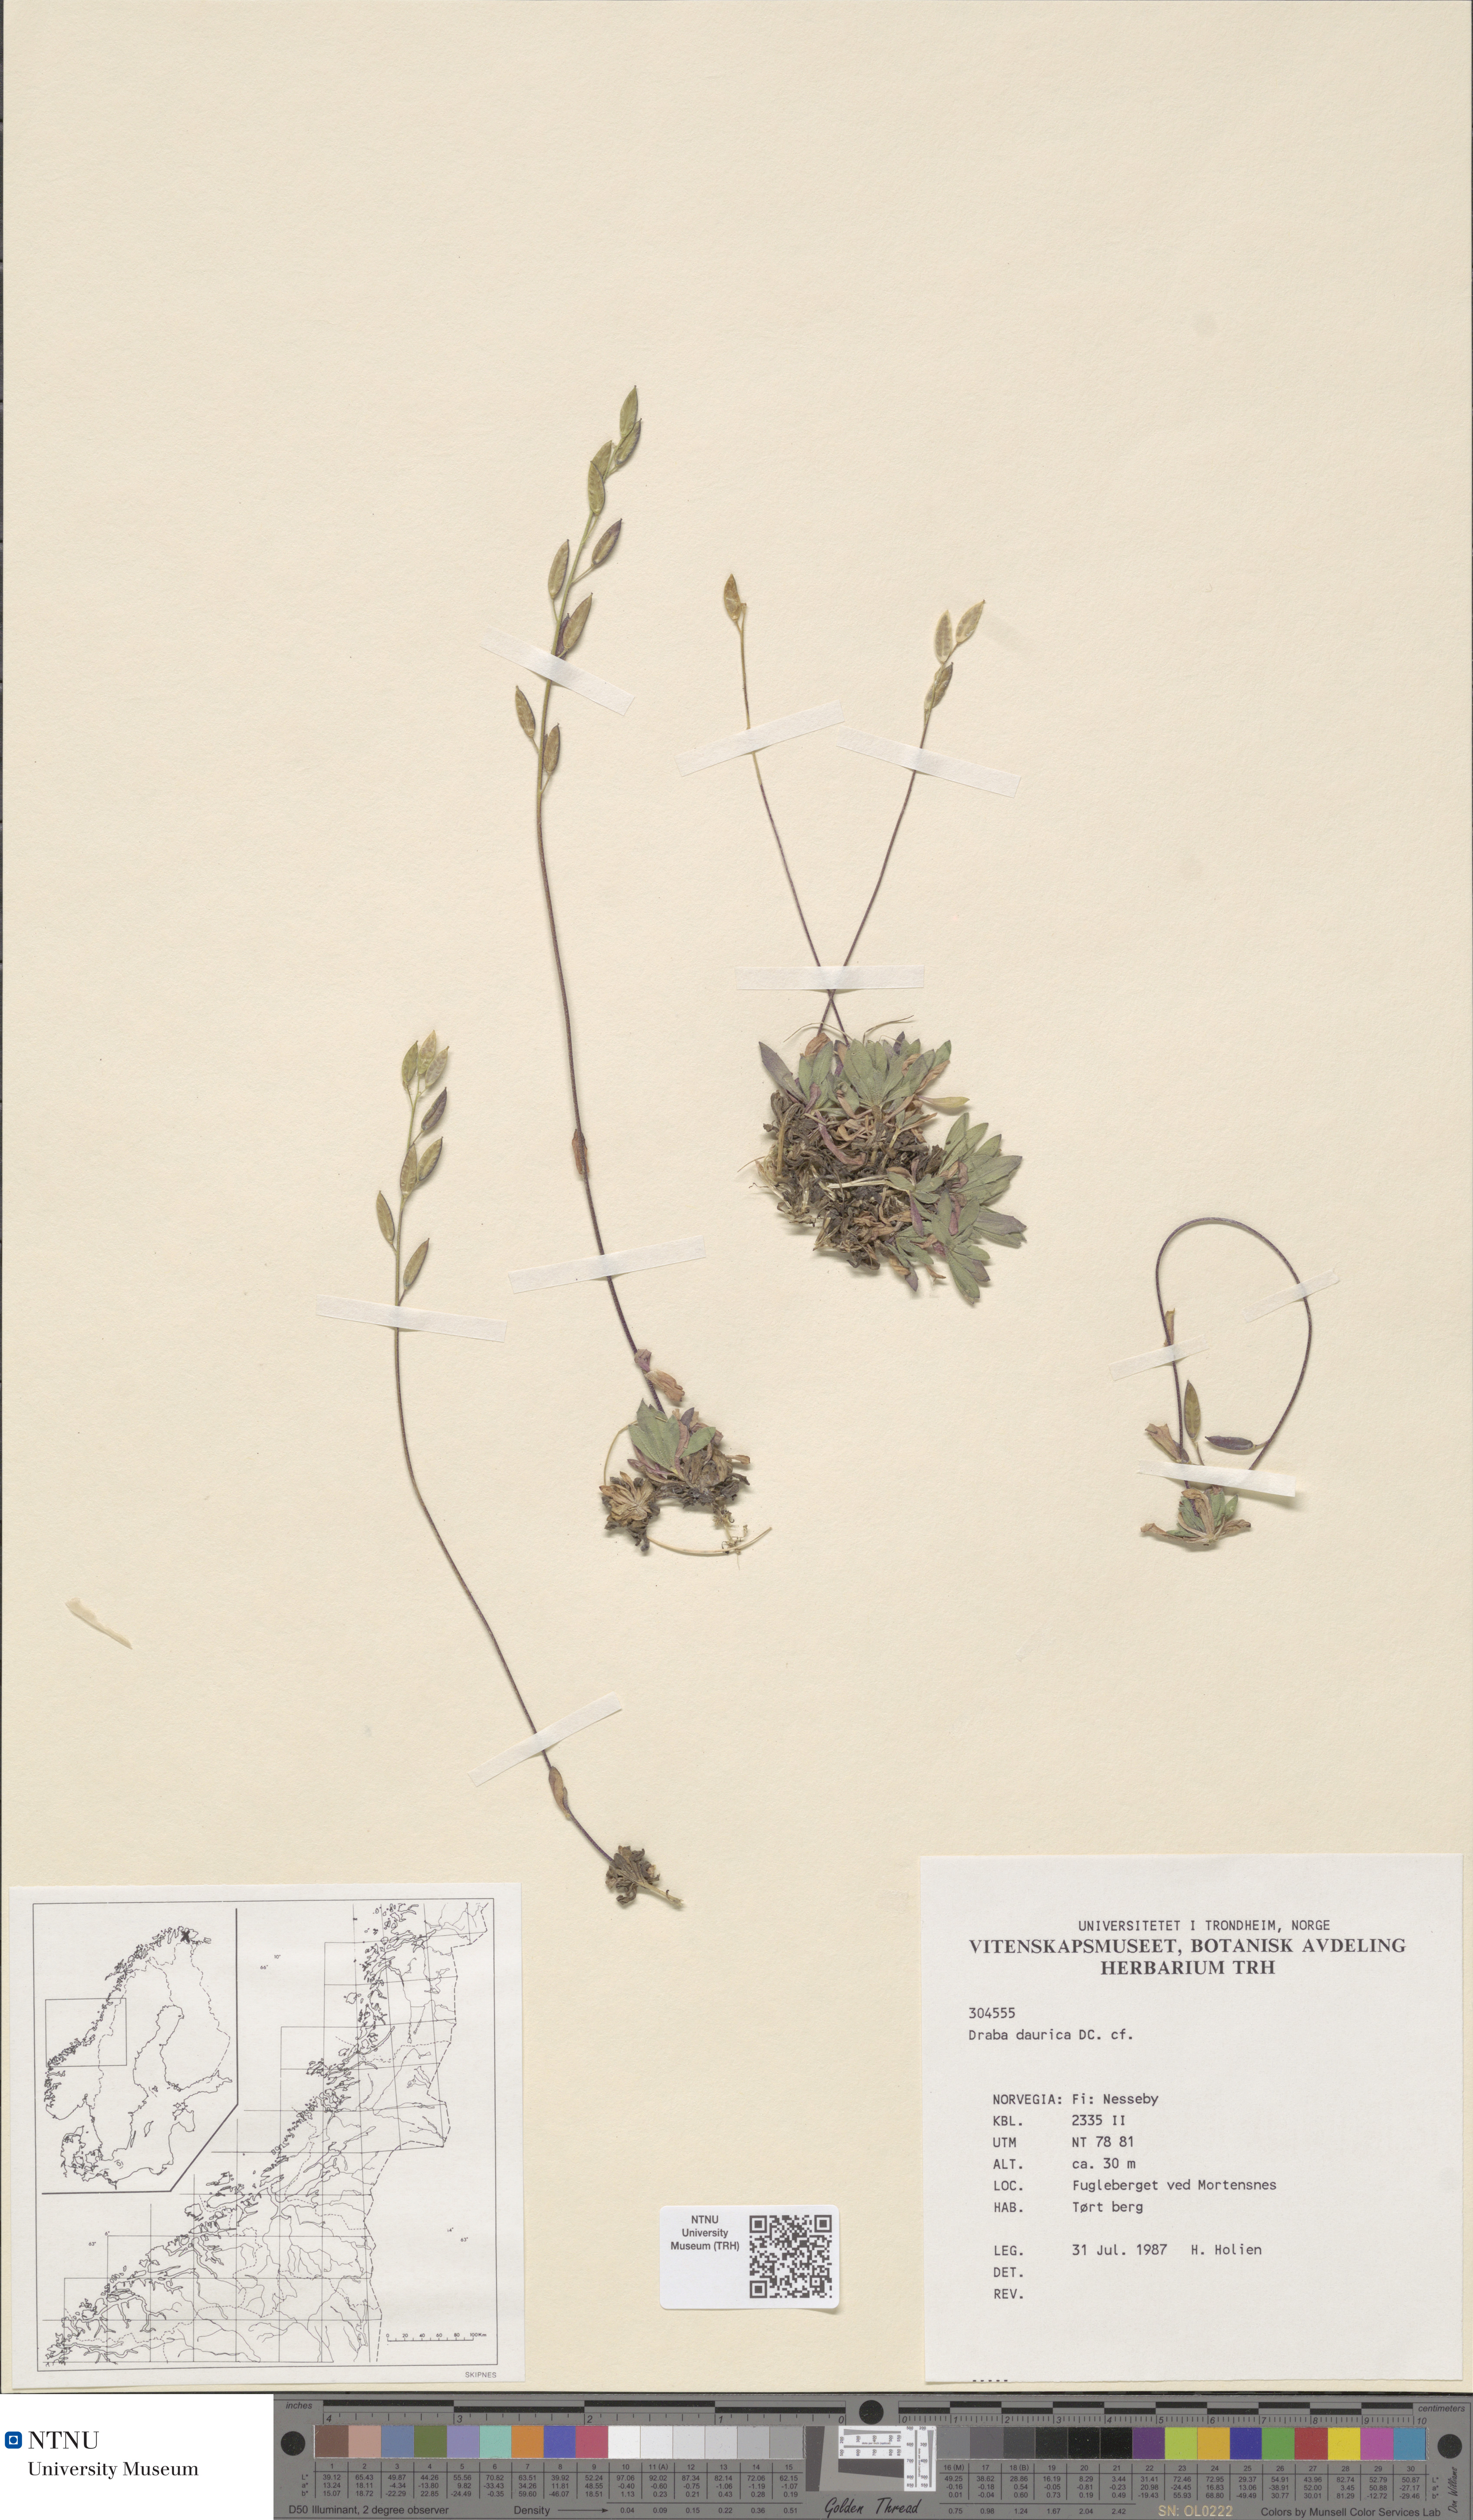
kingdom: Plantae
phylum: Tracheophyta
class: Magnoliopsida
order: Brassicales
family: Brassicaceae
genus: Draba
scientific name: Draba glabella
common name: Glaucous draba
